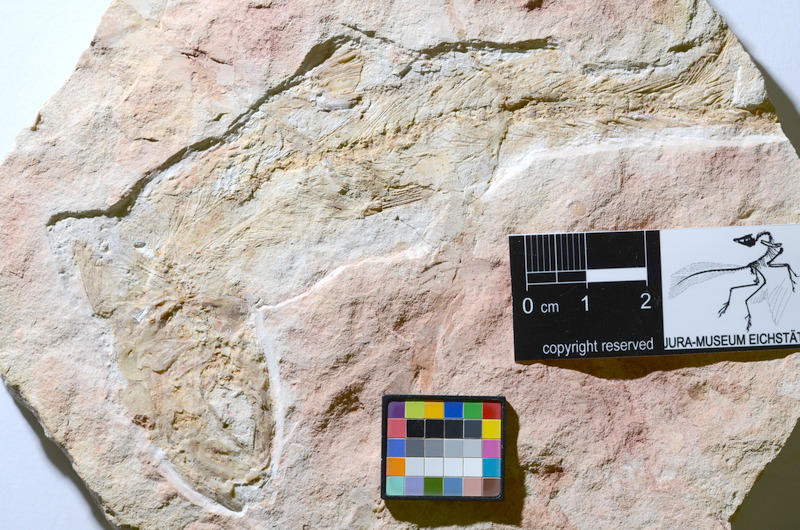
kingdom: Animalia
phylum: Chordata
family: Ascalaboidae
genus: Tharsis
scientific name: Tharsis
